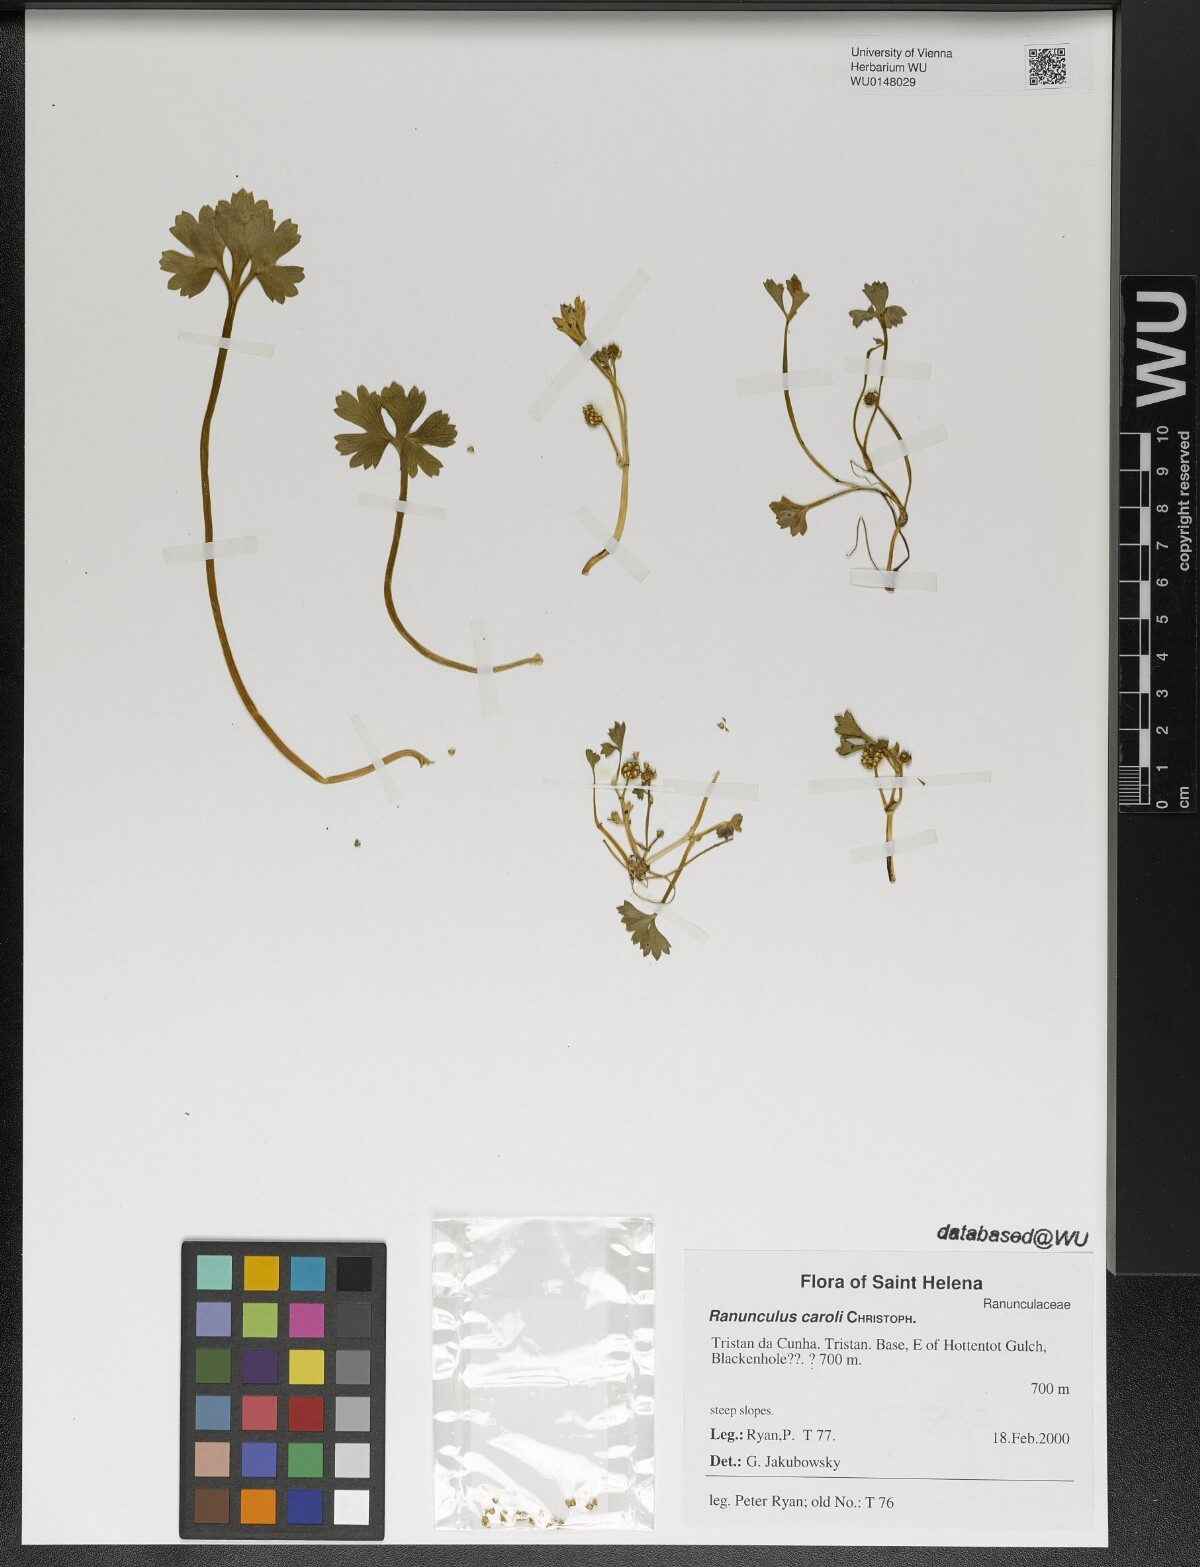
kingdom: Plantae
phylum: Tracheophyta
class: Magnoliopsida
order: Ranunculales
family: Ranunculaceae
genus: Ranunculus
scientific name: Ranunculus caroli
